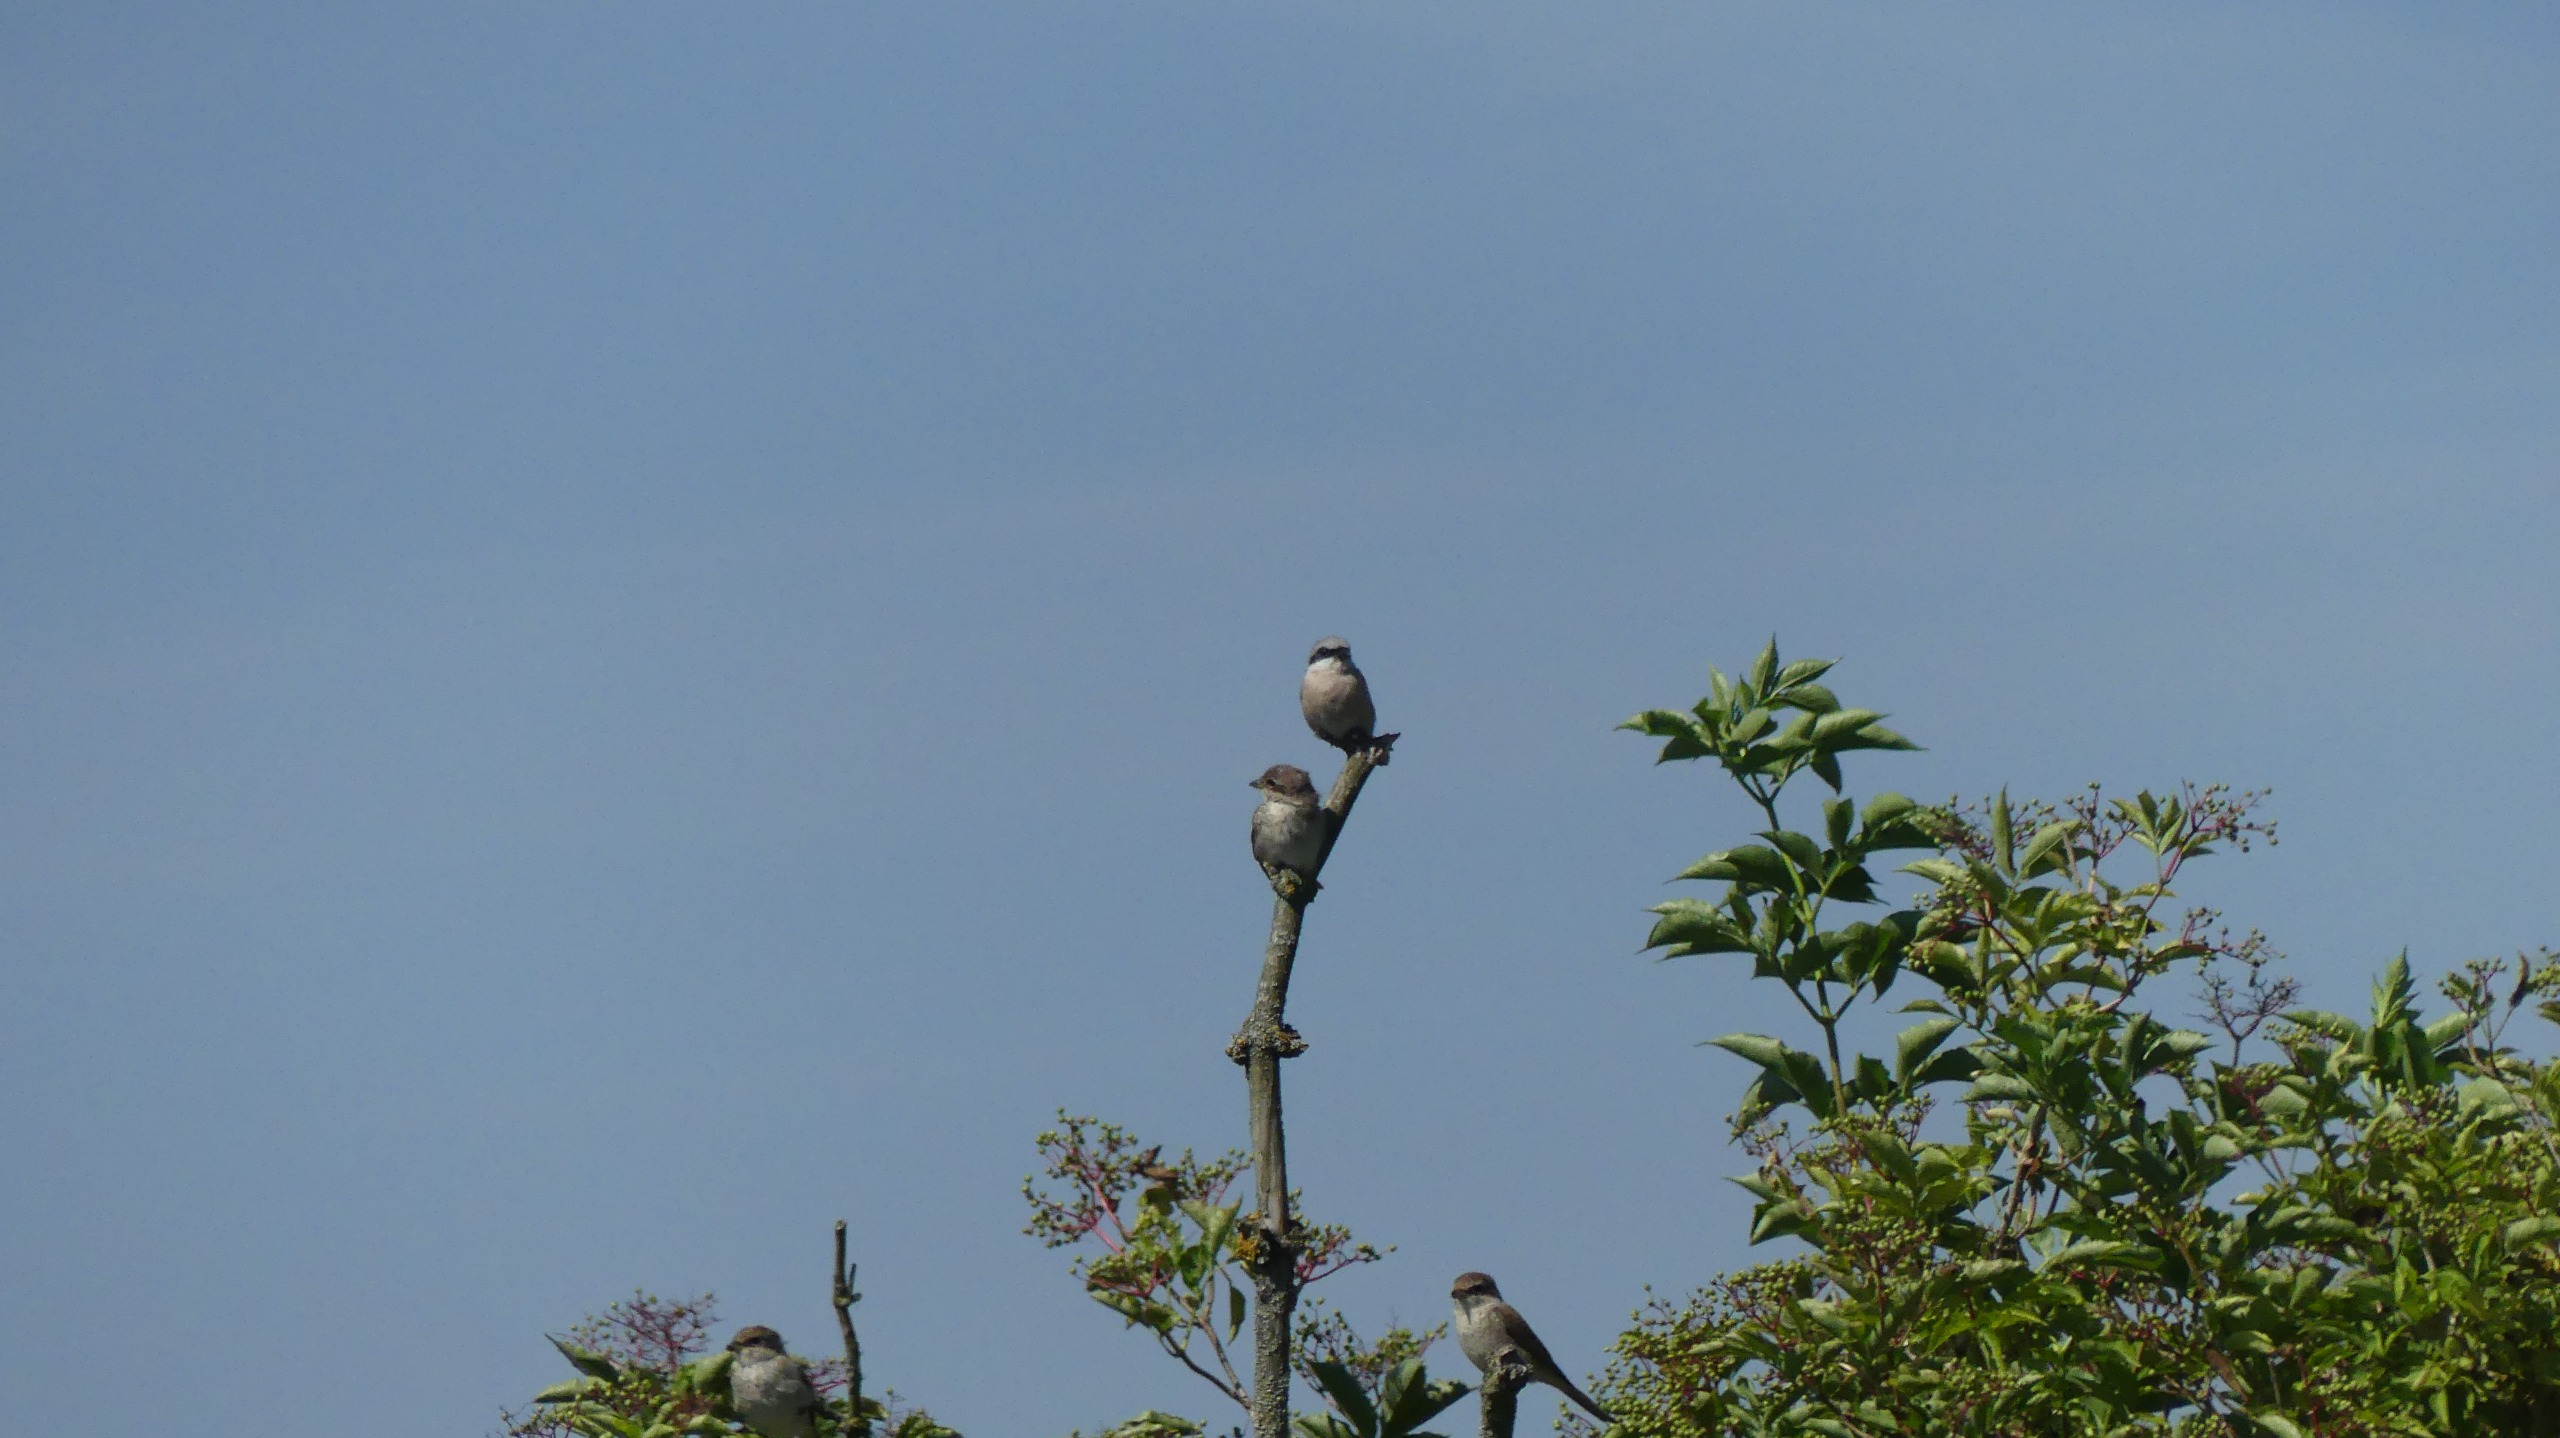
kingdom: Animalia
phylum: Chordata
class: Aves
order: Passeriformes
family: Laniidae
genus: Lanius
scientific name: Lanius collurio
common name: Rødrygget tornskade
